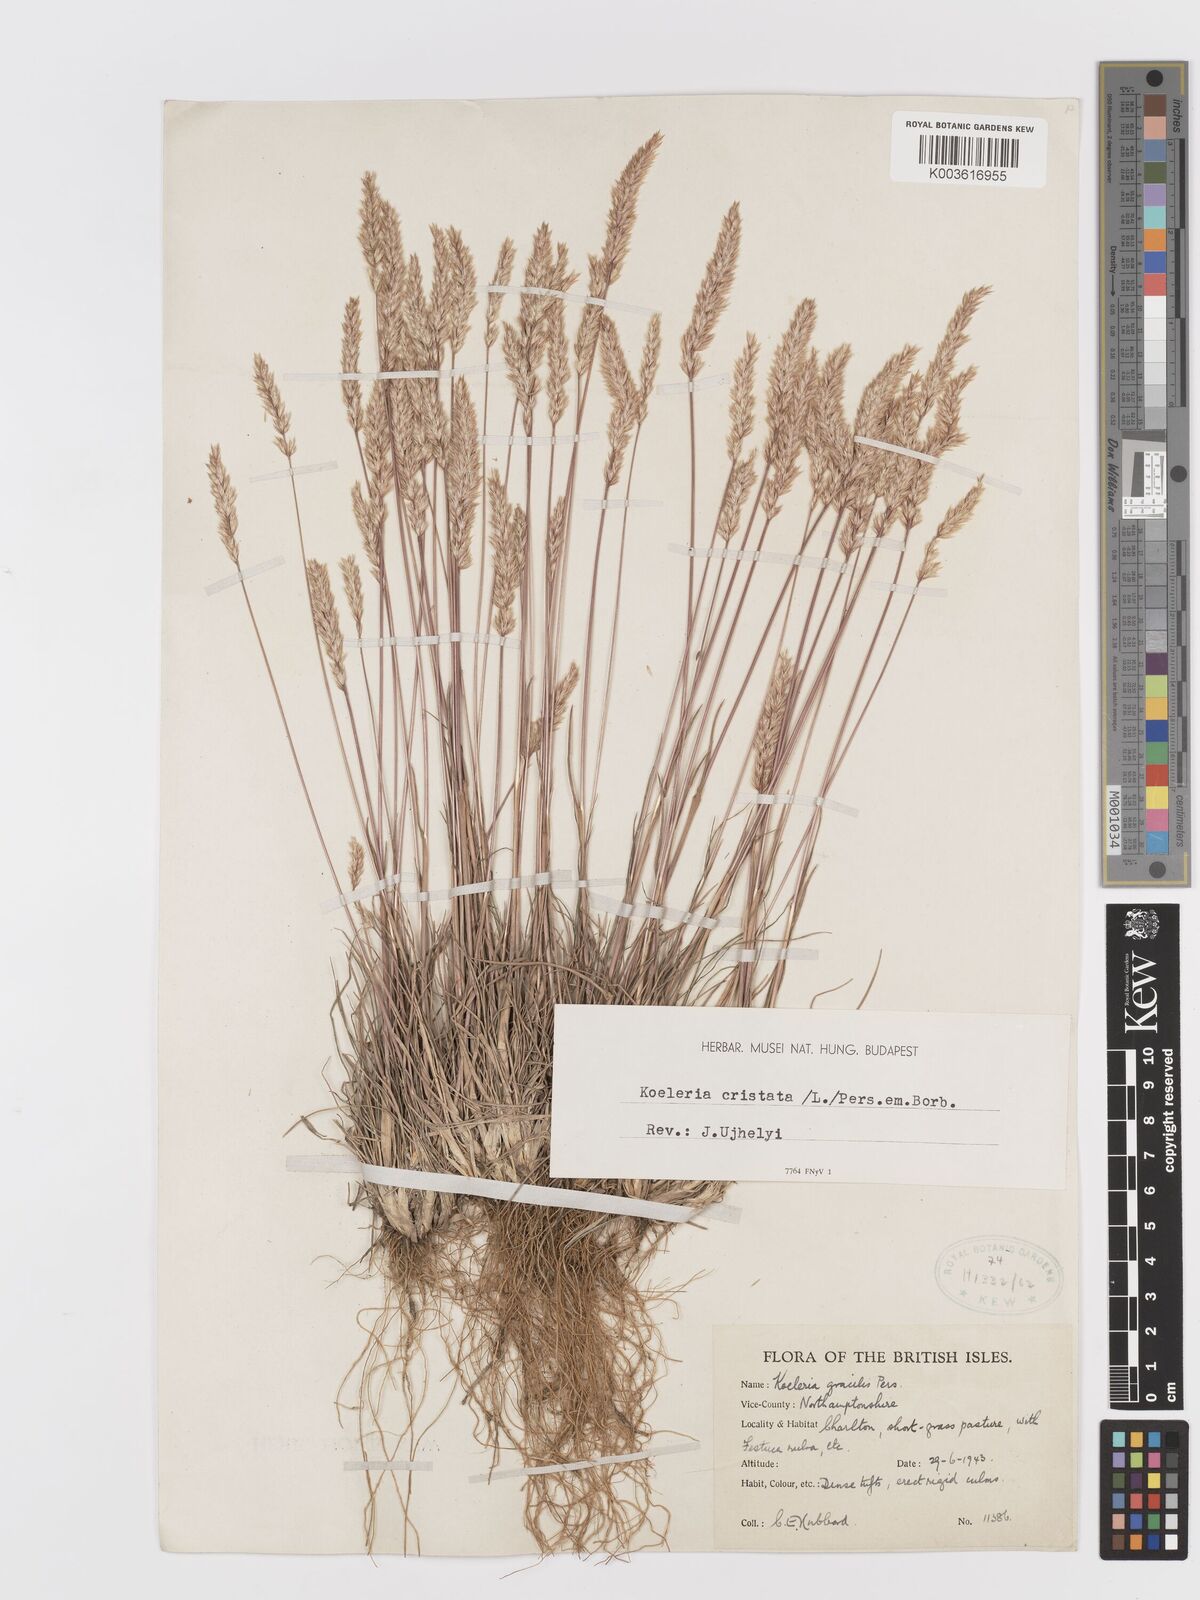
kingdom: Plantae
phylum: Tracheophyta
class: Liliopsida
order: Poales
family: Poaceae
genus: Koeleria
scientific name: Koeleria macrantha
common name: Crested hair-grass
